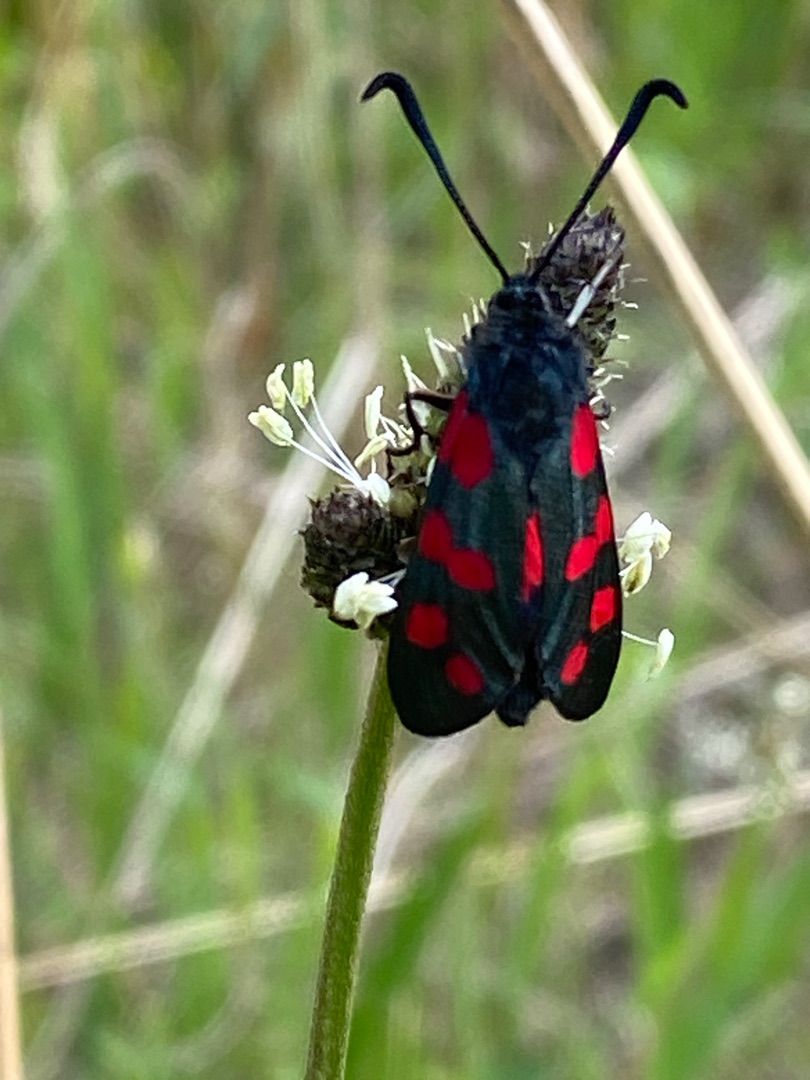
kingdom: Animalia
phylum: Arthropoda
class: Insecta
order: Lepidoptera
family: Zygaenidae
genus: Zygaena
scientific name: Zygaena filipendulae
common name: Seksplettet køllesværmer
